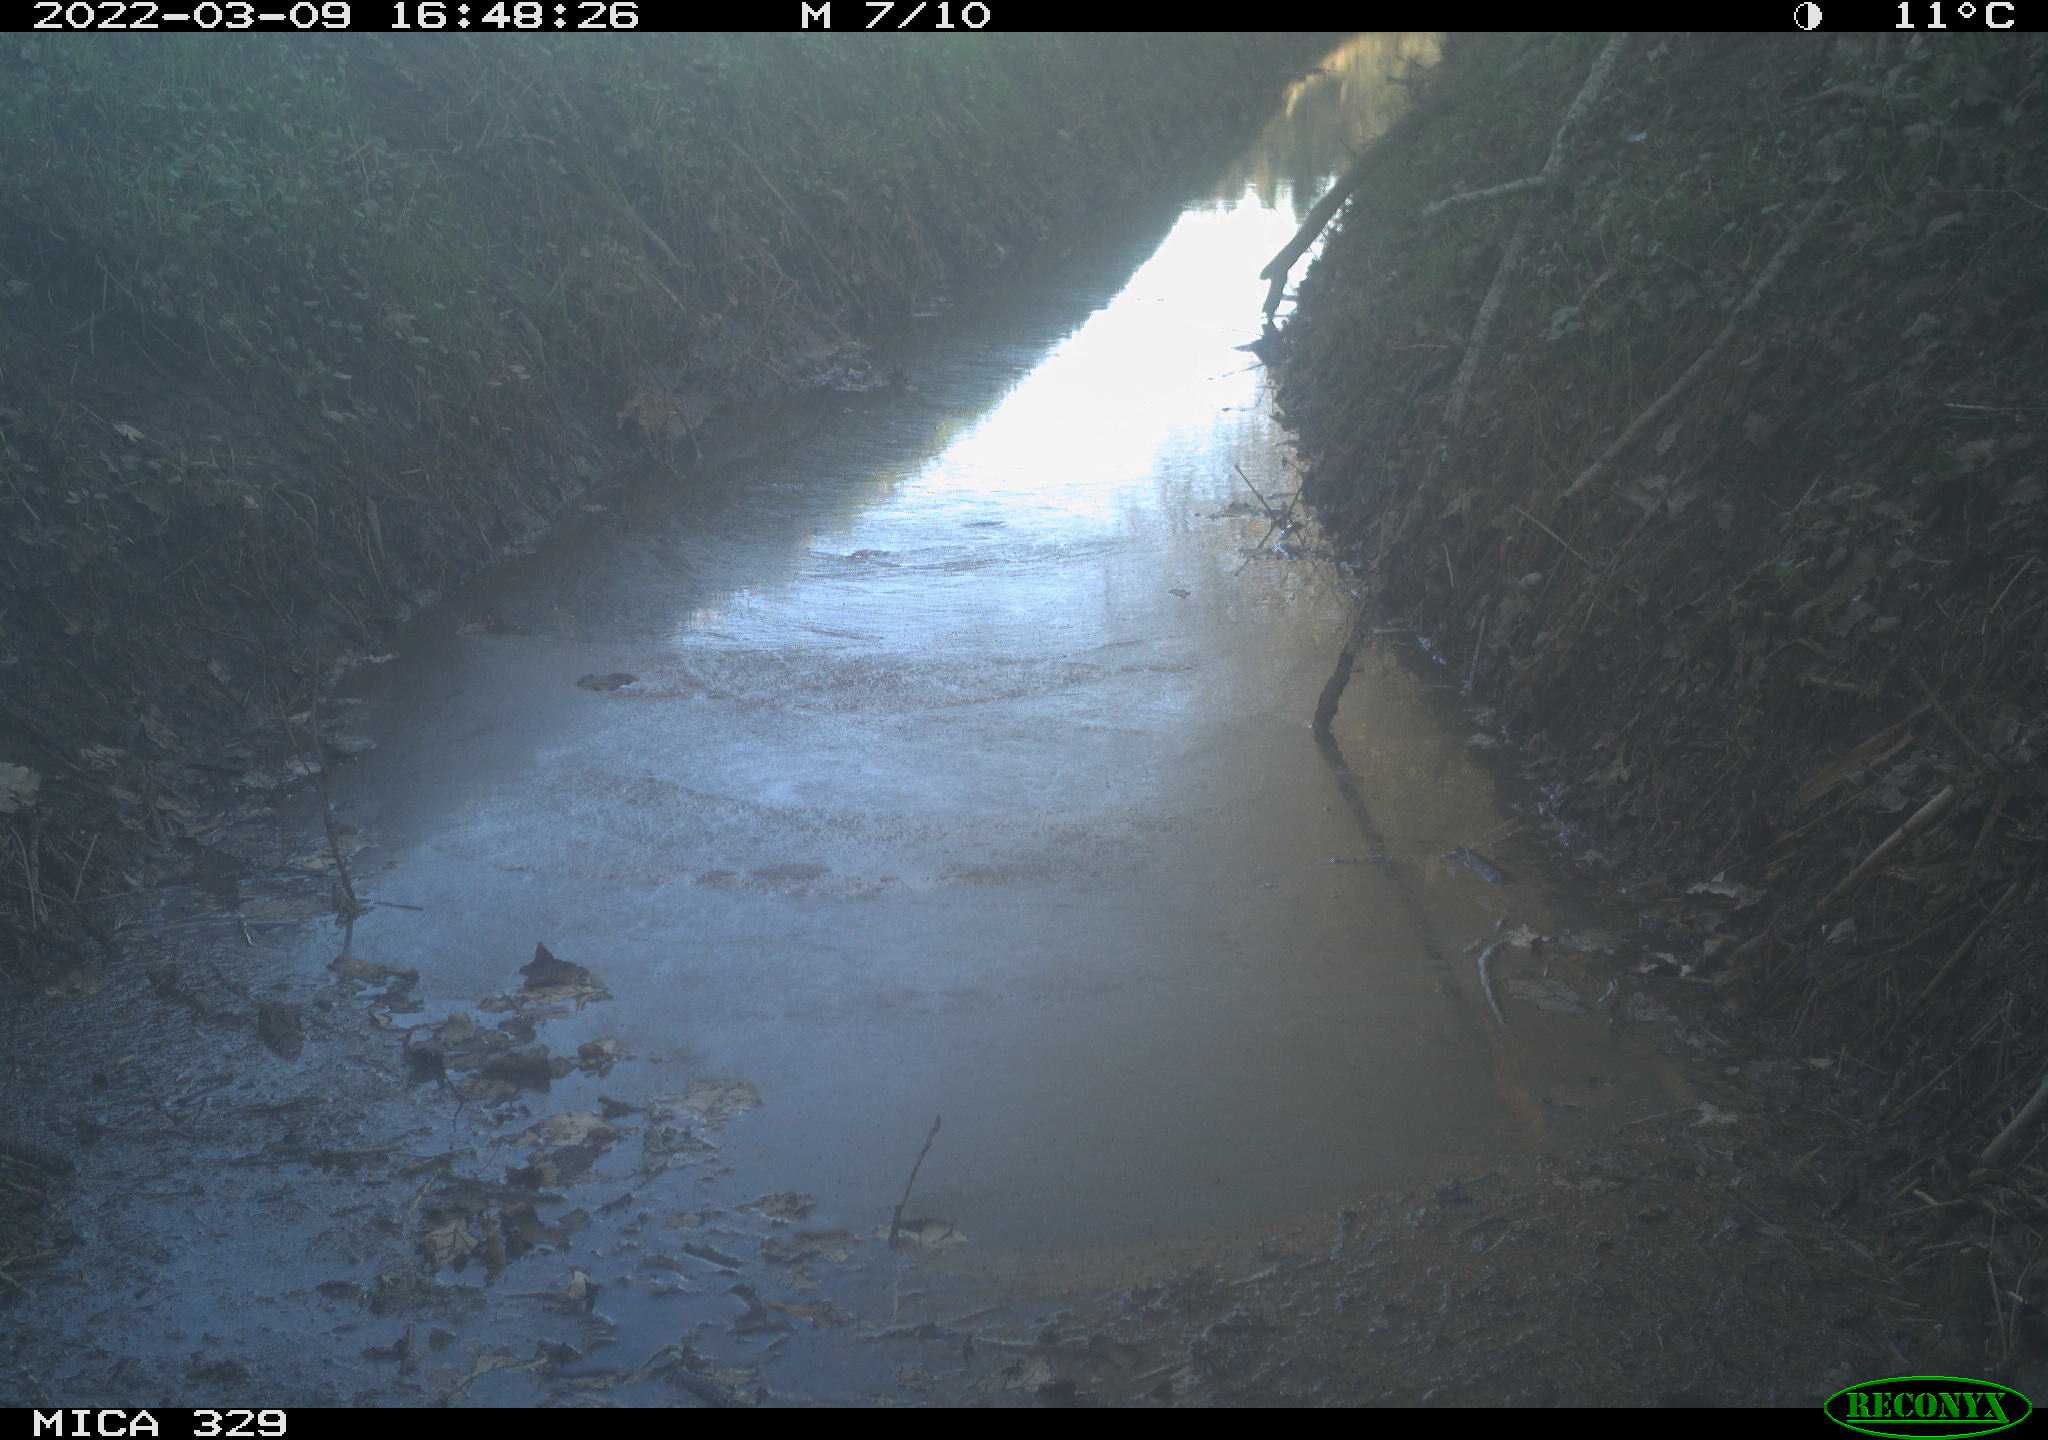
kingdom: Animalia
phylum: Chordata
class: Aves
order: Passeriformes
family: Turdidae
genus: Turdus
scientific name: Turdus merula
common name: Common blackbird
